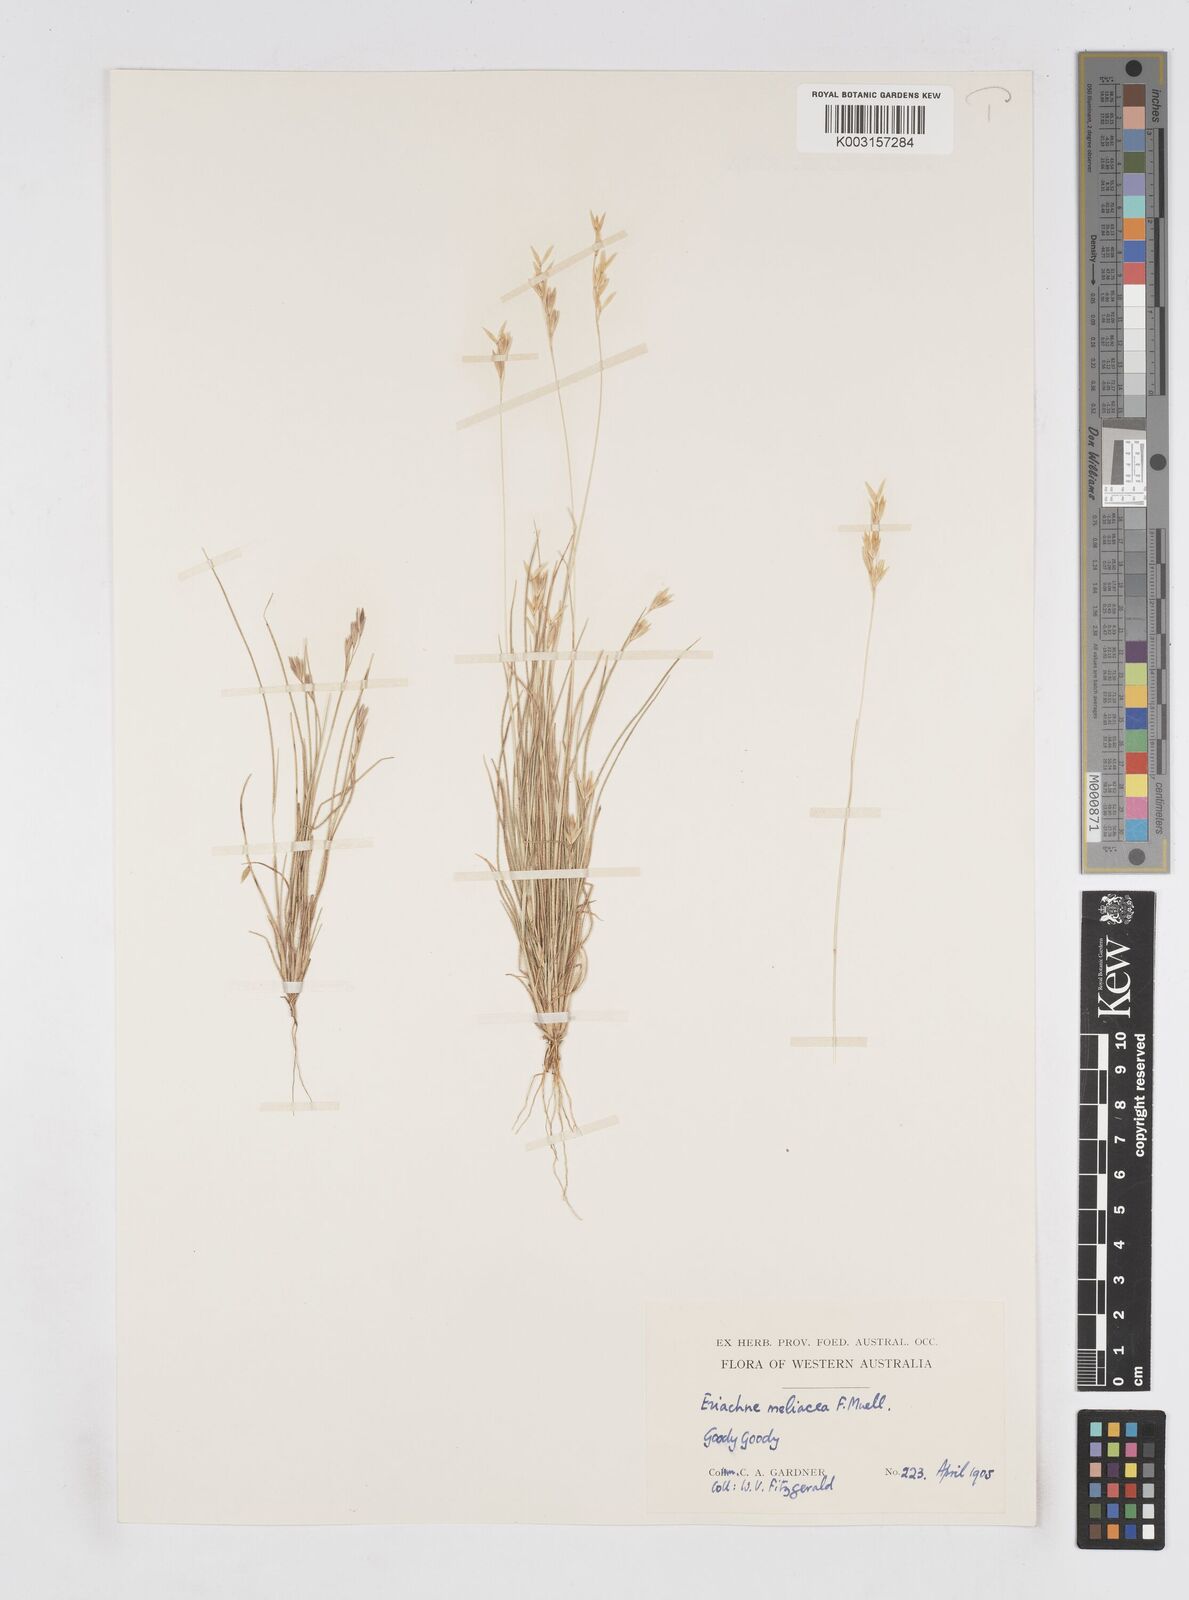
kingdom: Plantae
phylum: Tracheophyta
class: Liliopsida
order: Poales
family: Poaceae
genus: Eriachne
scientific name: Eriachne melicacea
